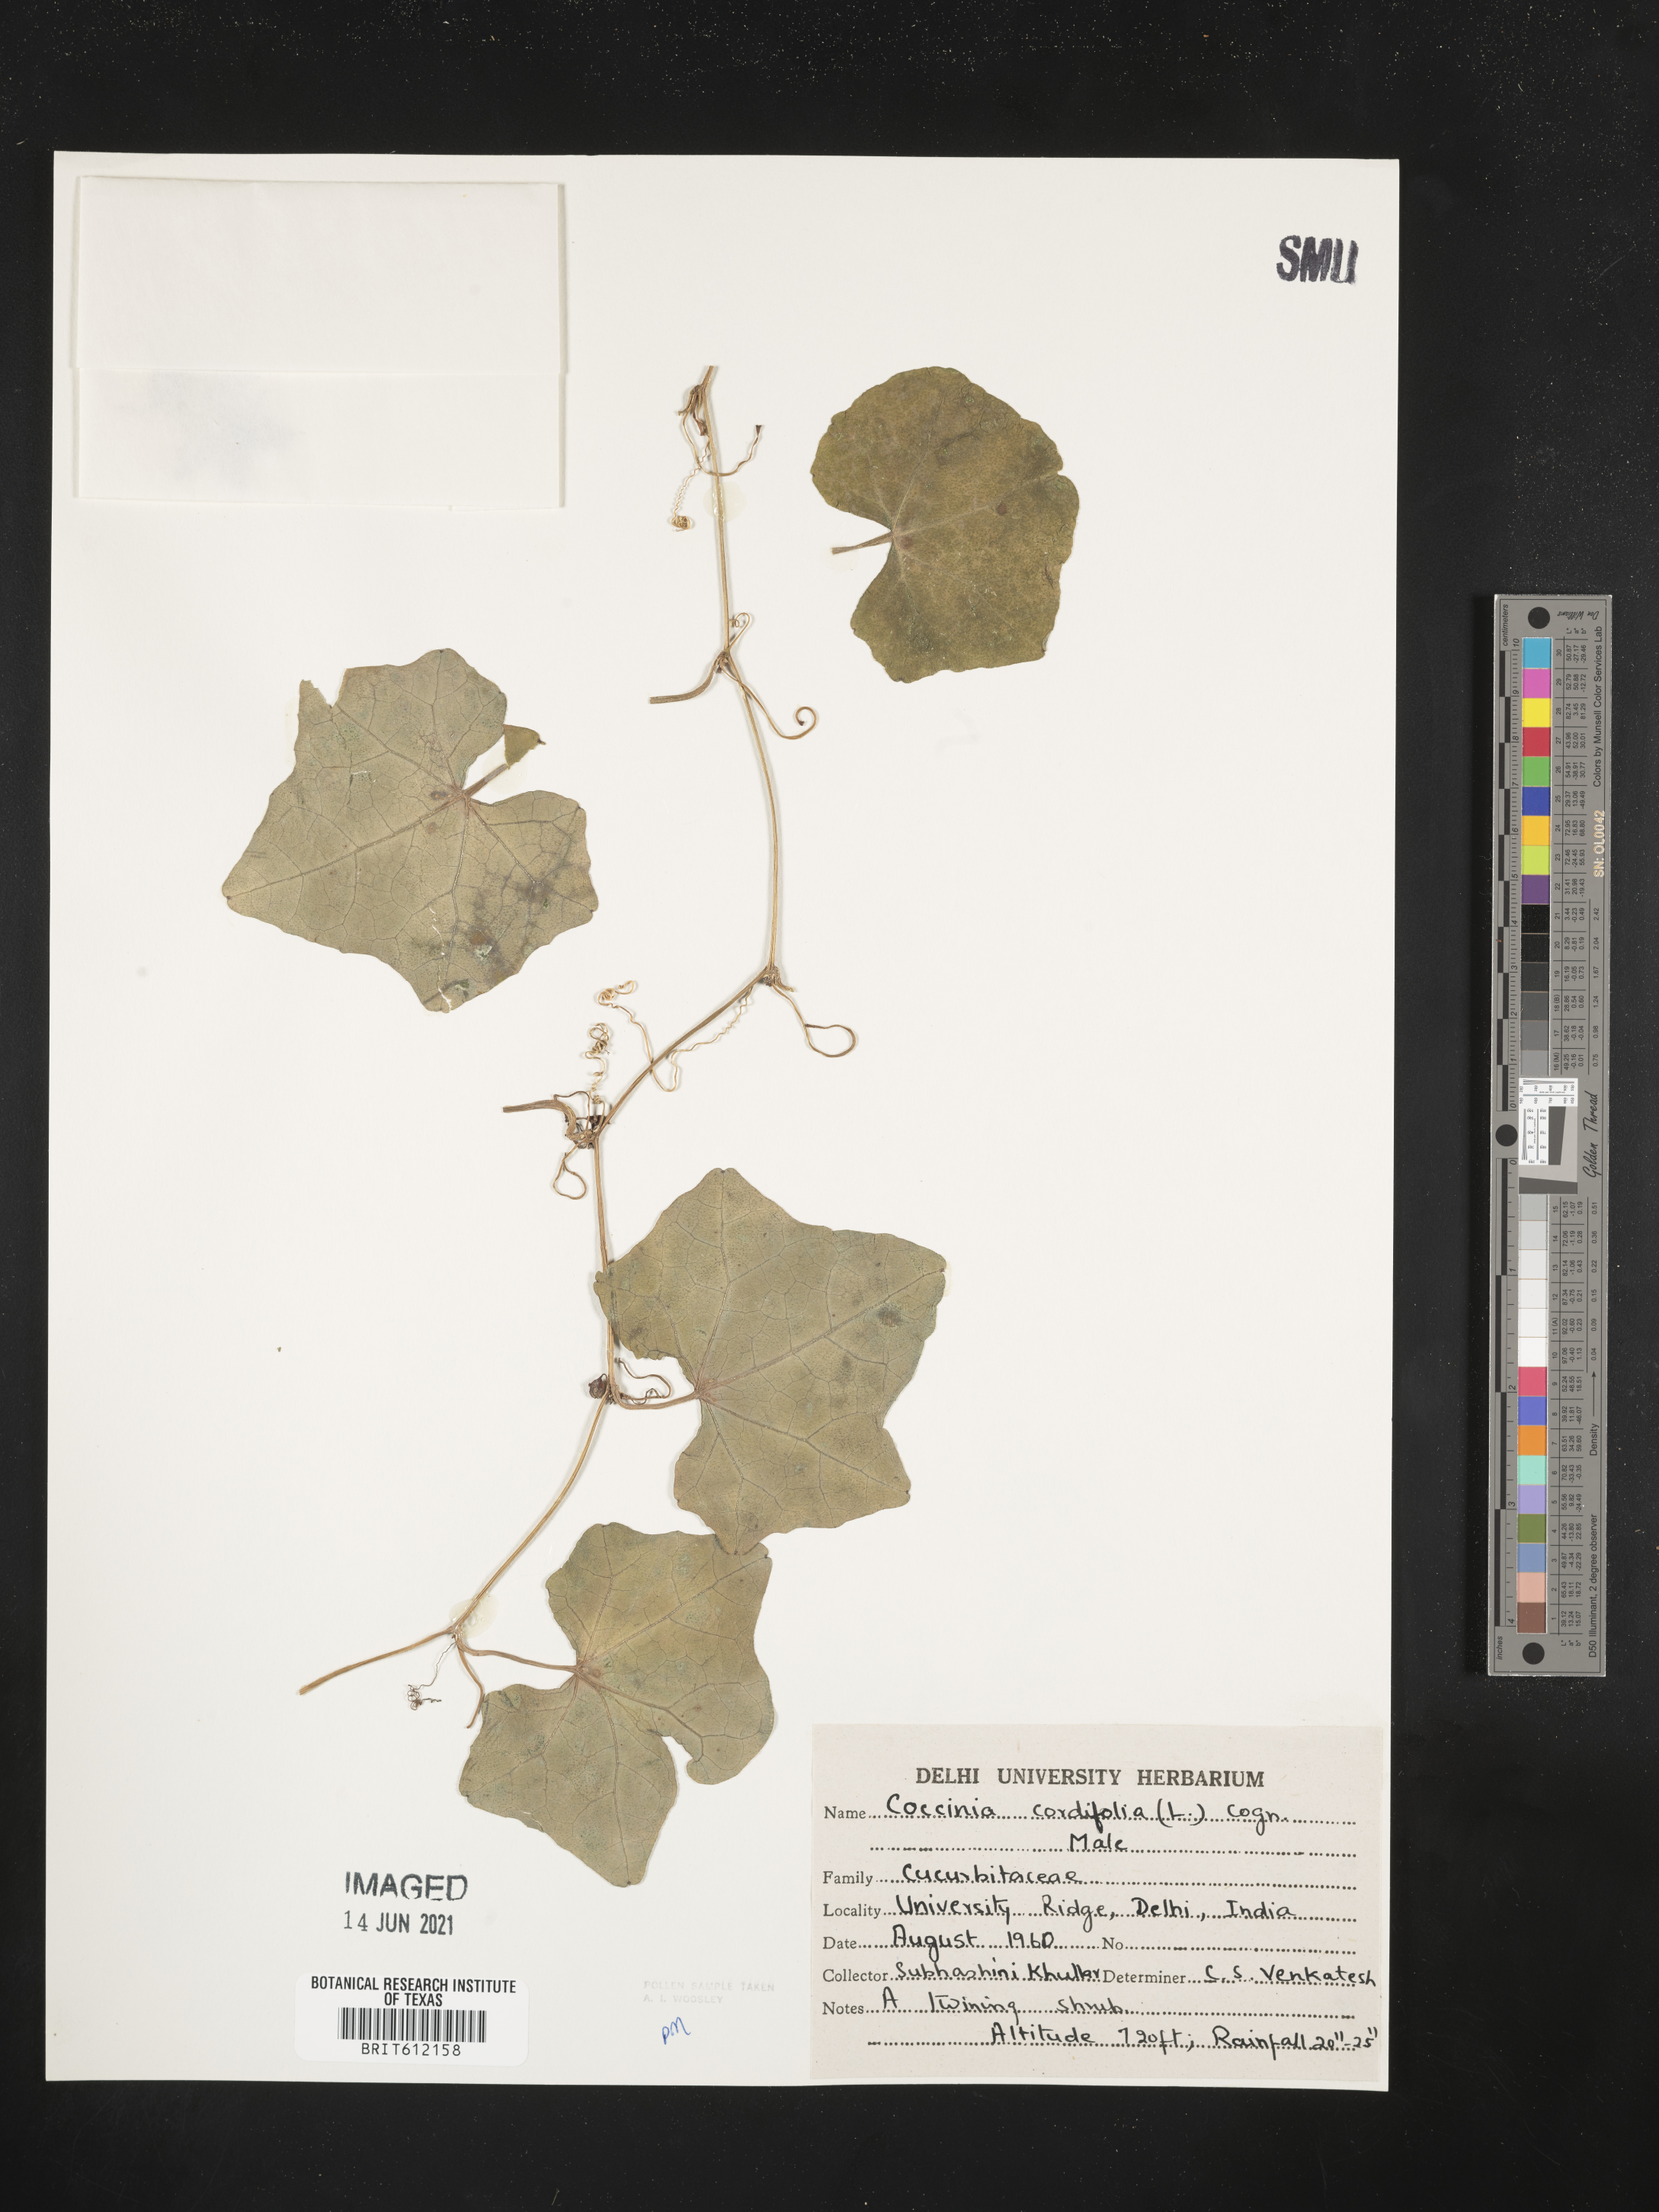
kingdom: Plantae
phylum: Tracheophyta
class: Magnoliopsida
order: Cucurbitales
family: Cucurbitaceae
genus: Cucumis
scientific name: Cucumis maderaspatanus
